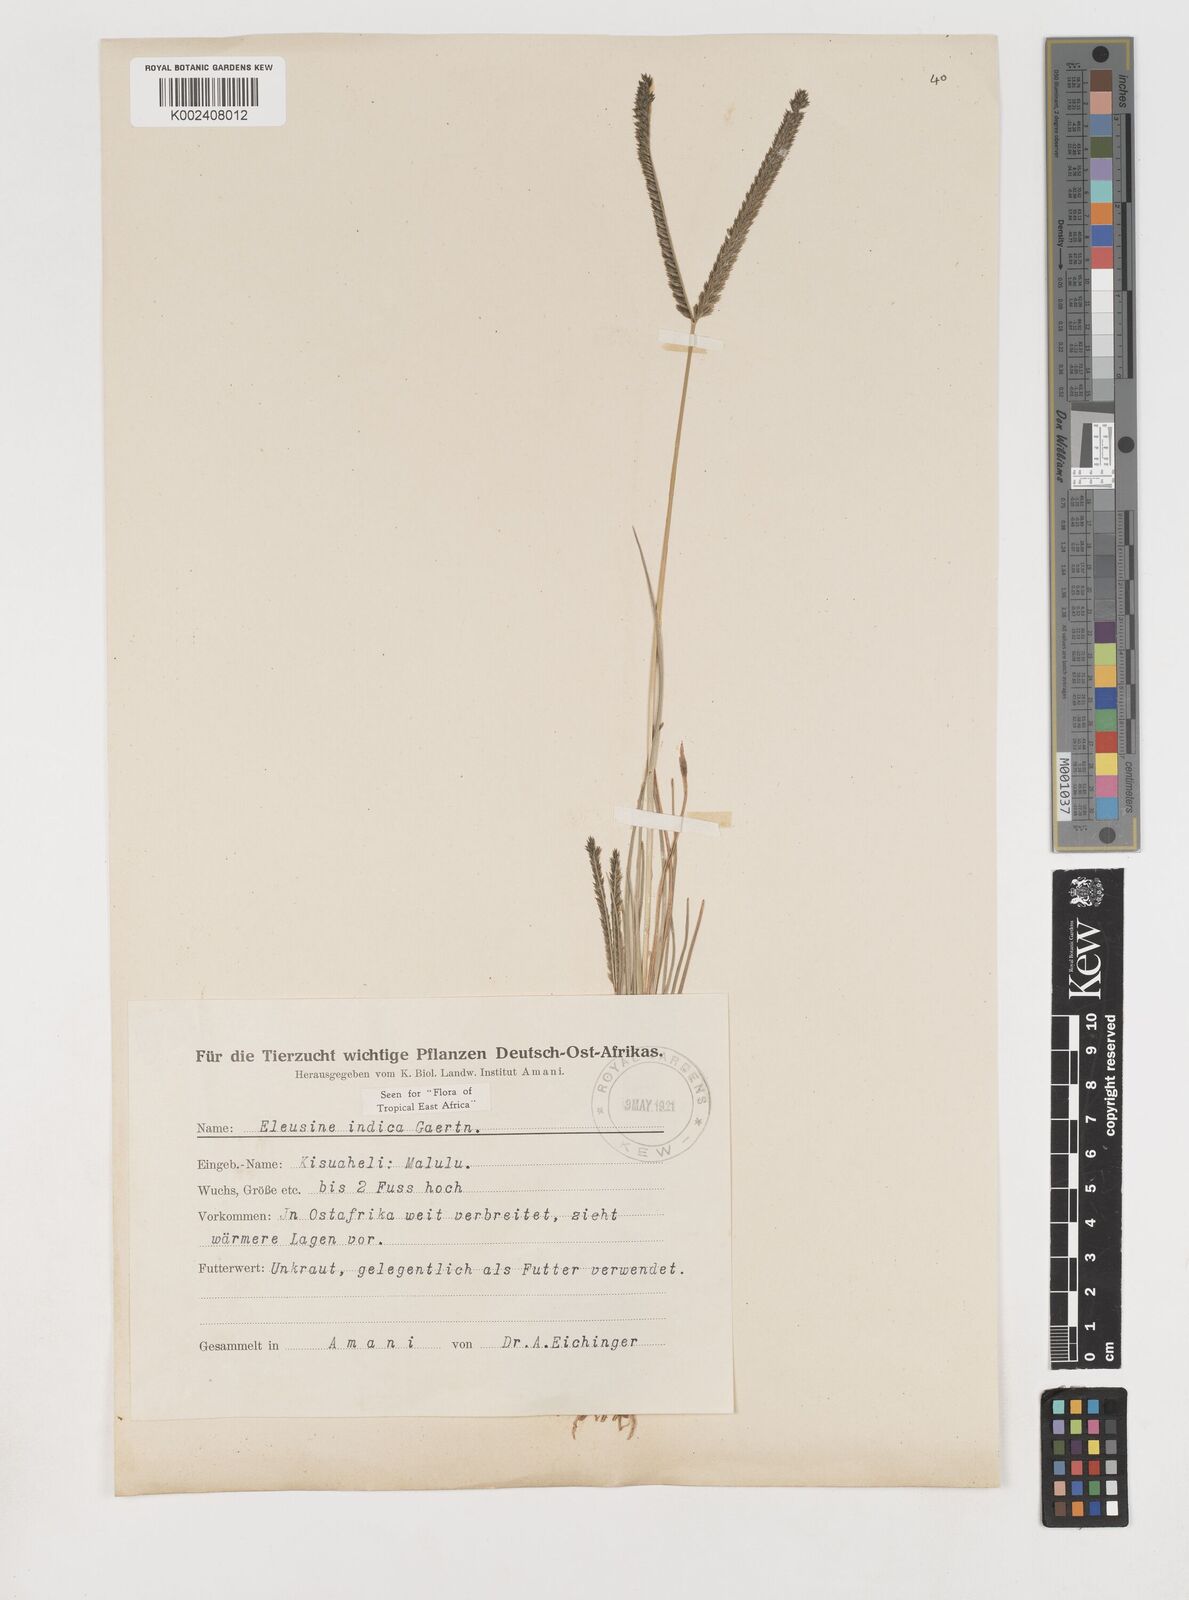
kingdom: Plantae
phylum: Tracheophyta
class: Liliopsida
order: Poales
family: Poaceae
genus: Eleusine
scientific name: Eleusine indica
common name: Yard-grass
